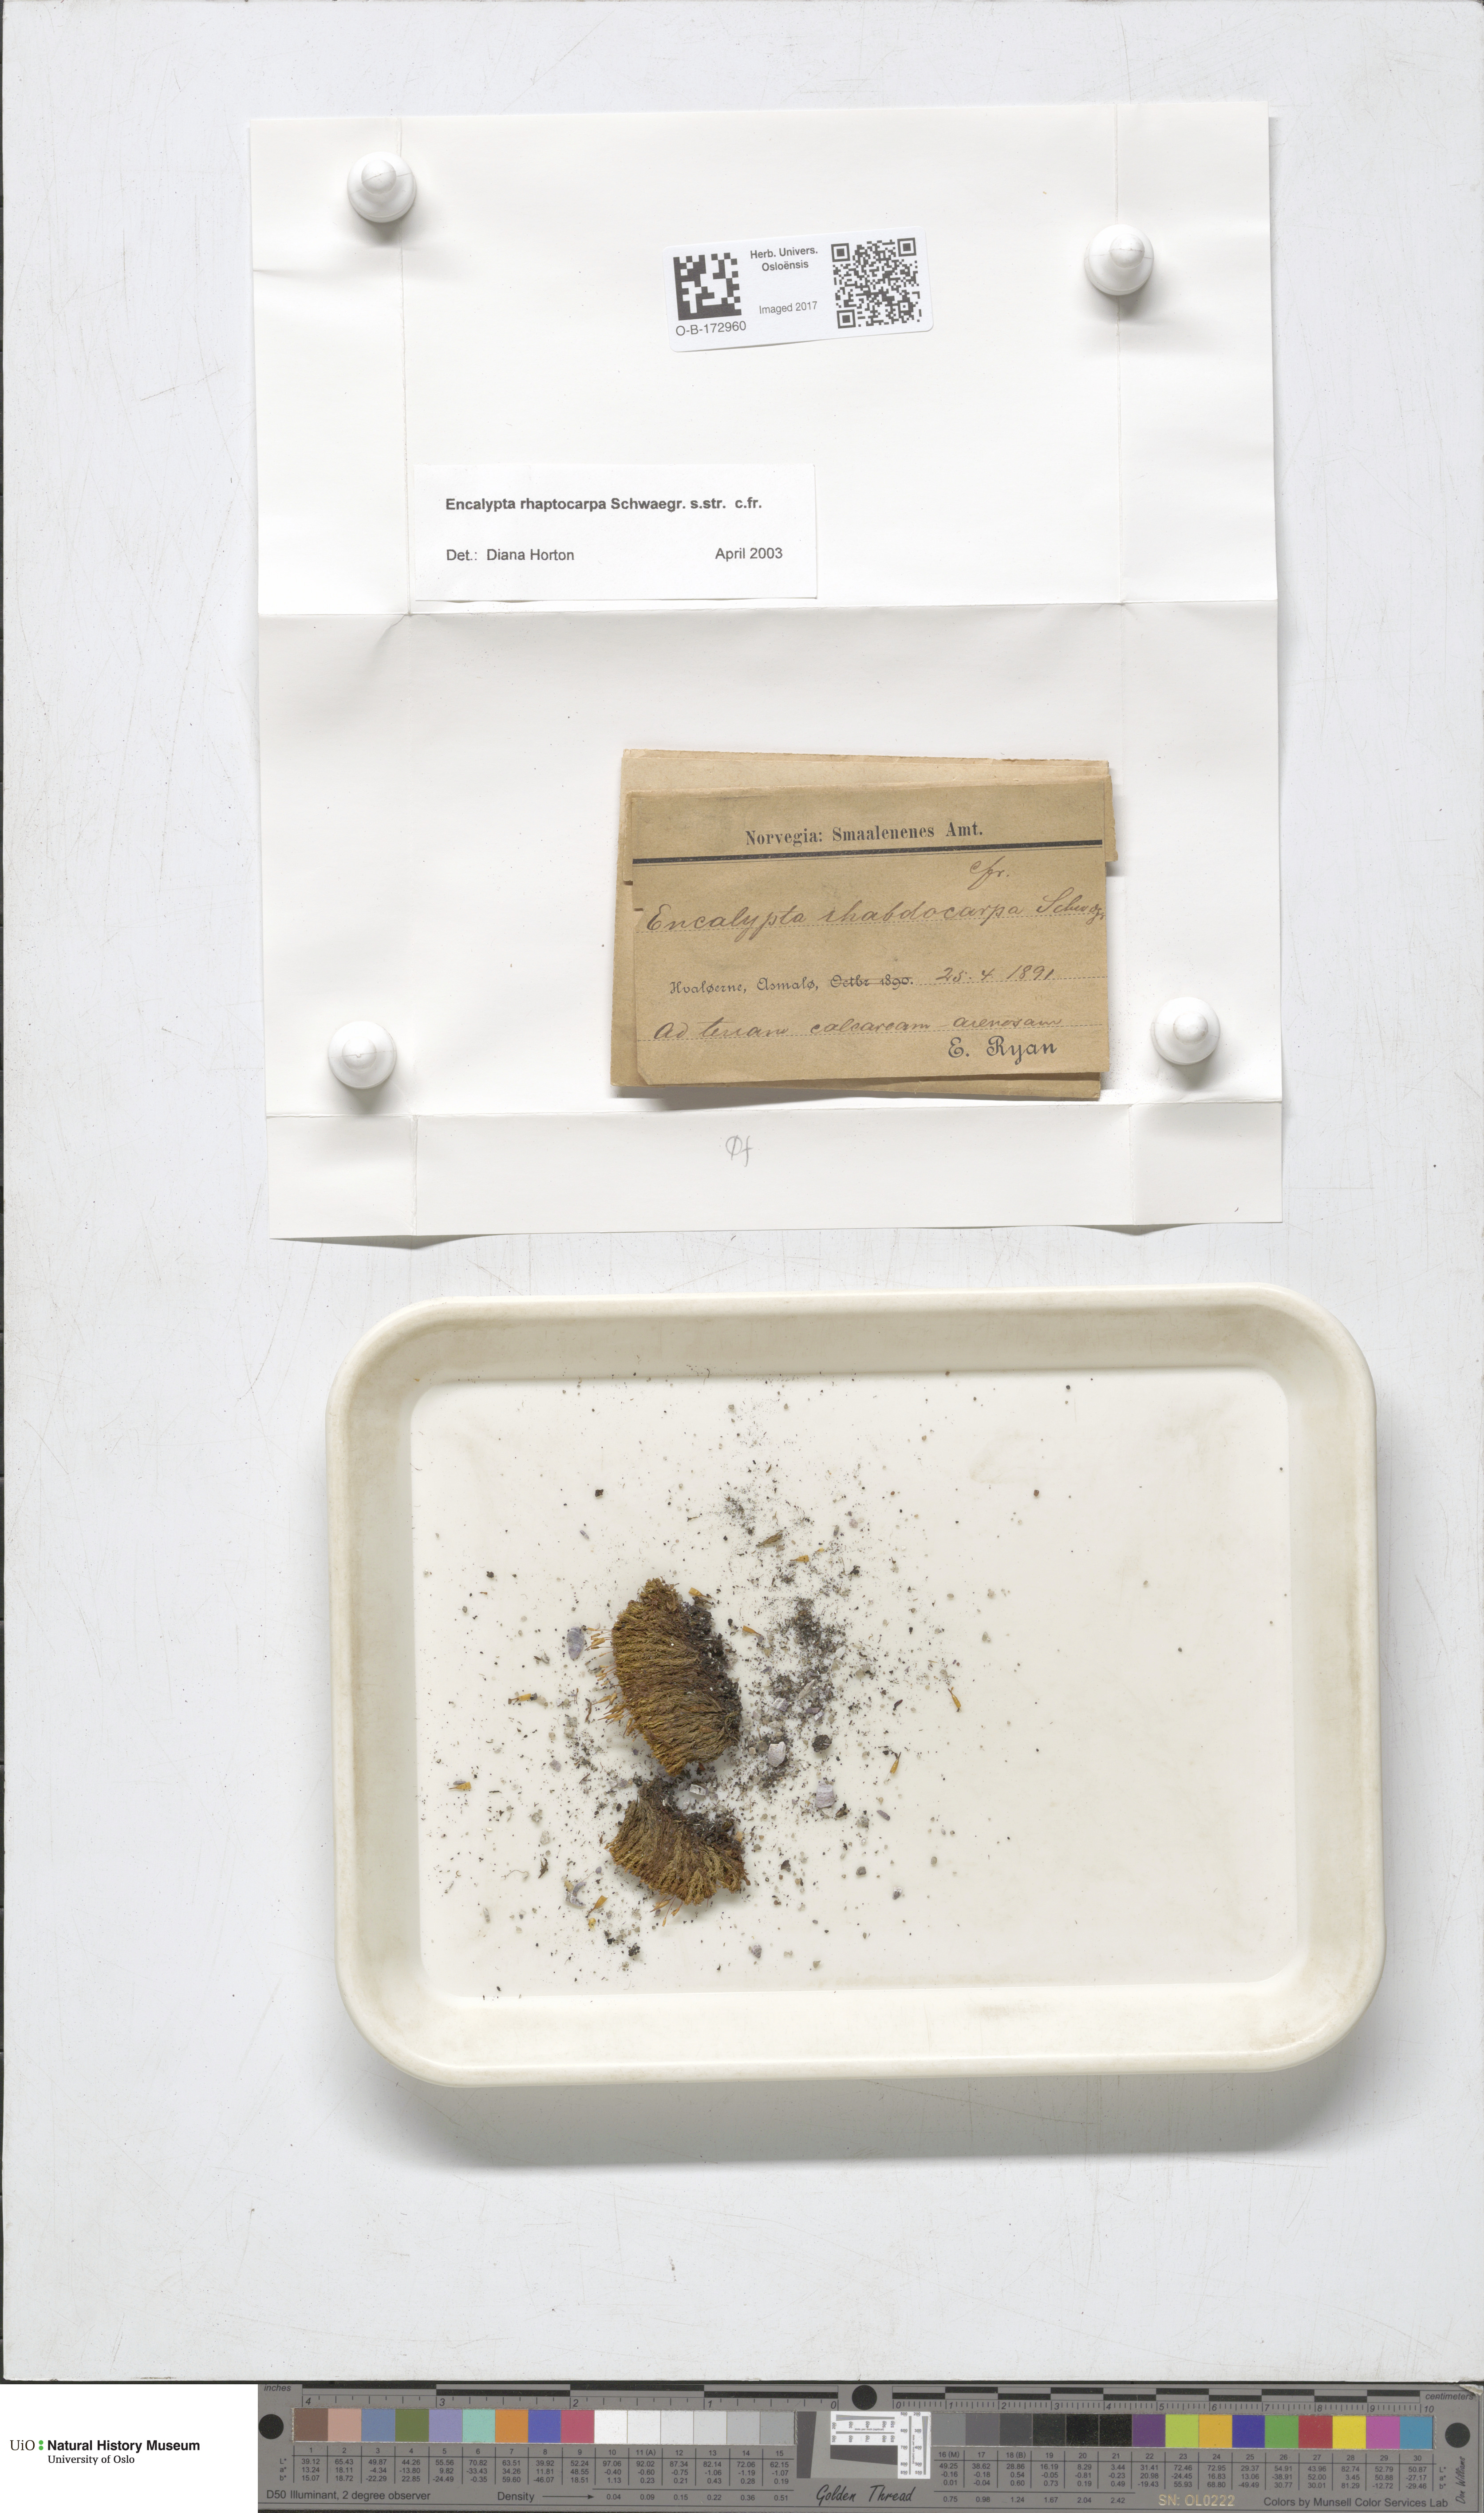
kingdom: Plantae
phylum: Bryophyta
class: Bryopsida
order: Encalyptales
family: Encalyptaceae
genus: Encalypta
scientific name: Encalypta rhaptocarpa
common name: Ribbed extinguisher moss
